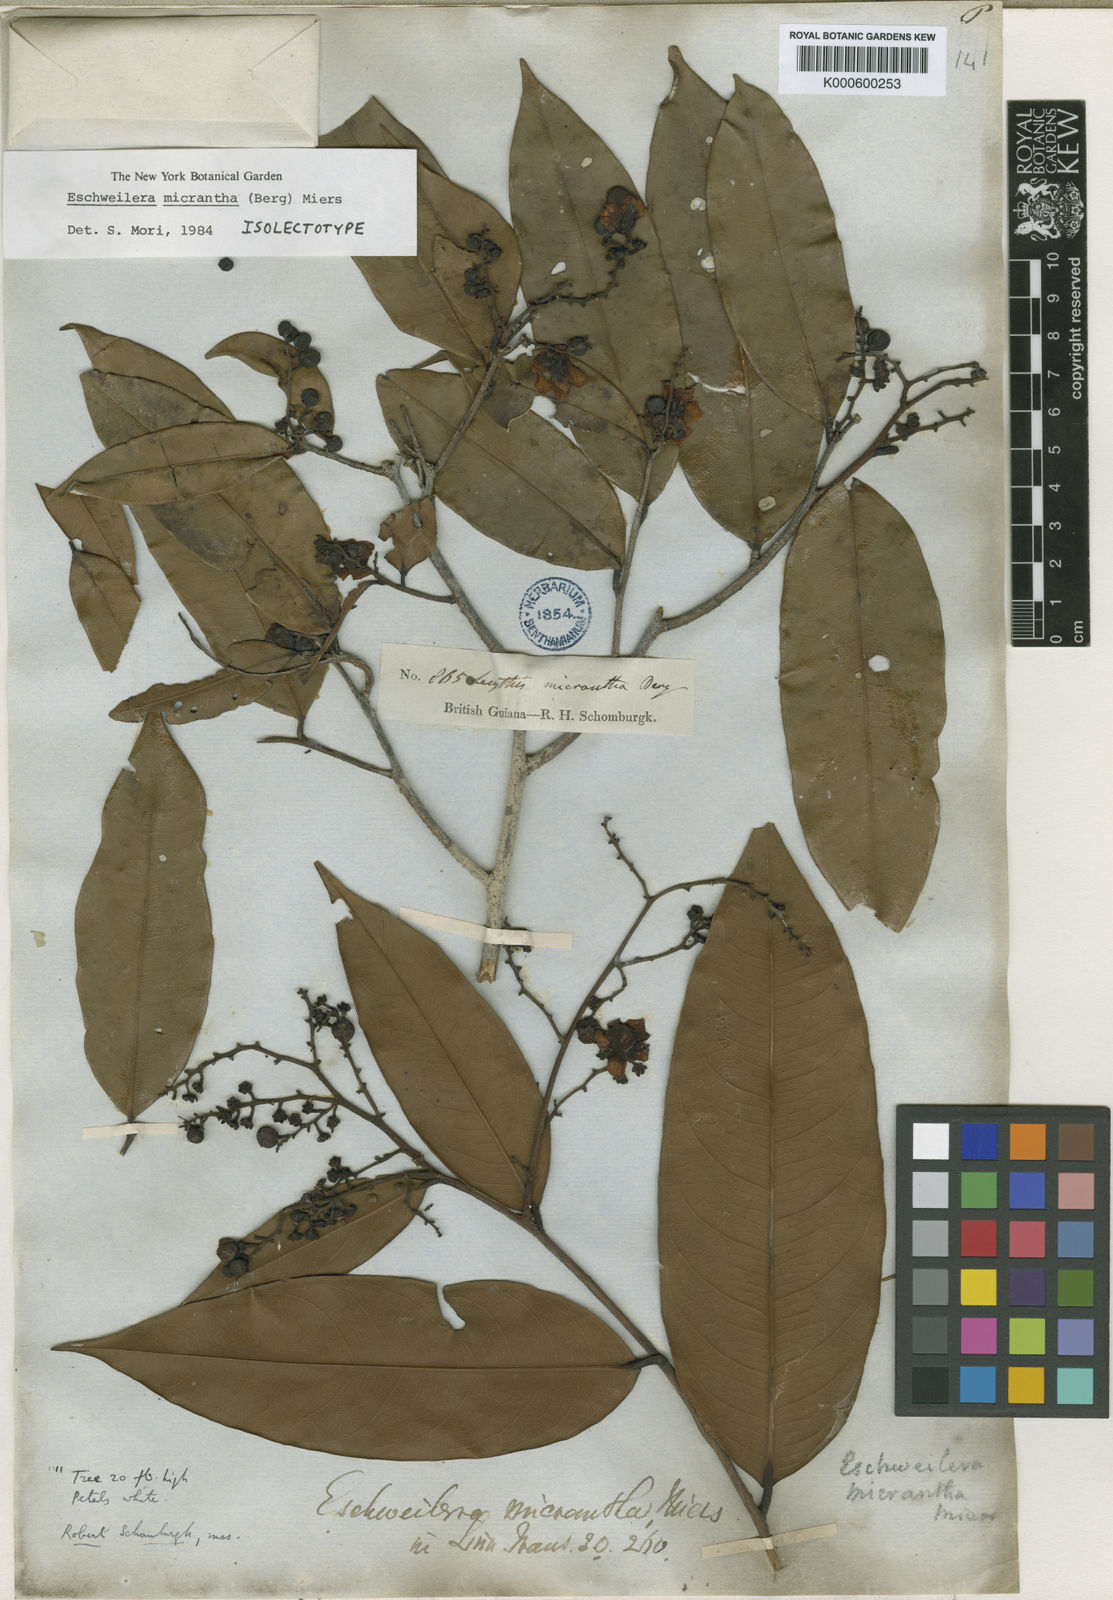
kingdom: Plantae
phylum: Tracheophyta
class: Magnoliopsida
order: Ericales
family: Lecythidaceae
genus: Eschweilera
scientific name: Eschweilera micrantha
